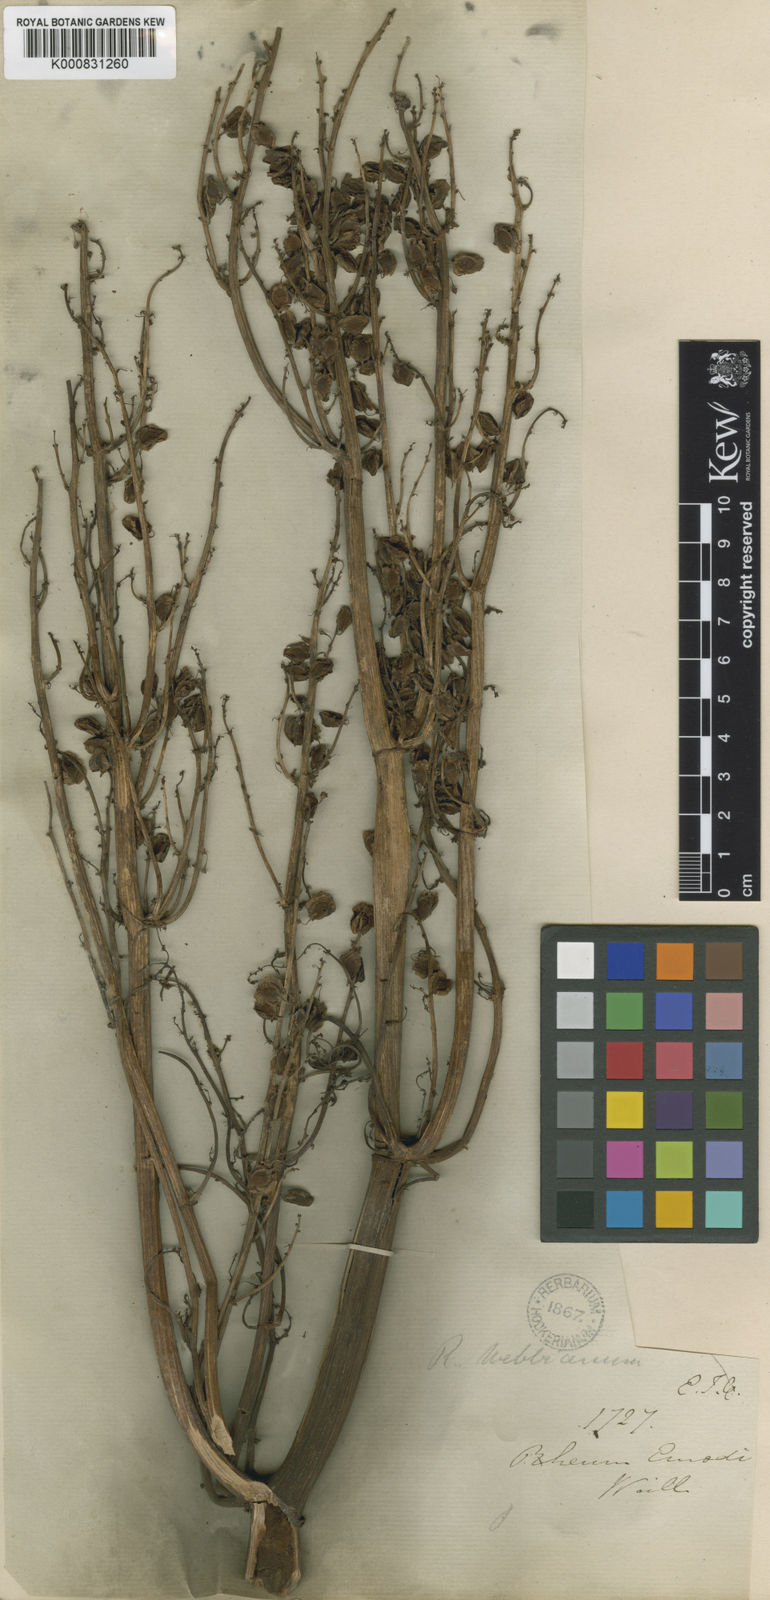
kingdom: Plantae
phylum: Tracheophyta
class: Magnoliopsida
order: Caryophyllales
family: Polygonaceae
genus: Rheum
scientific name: Rheum
